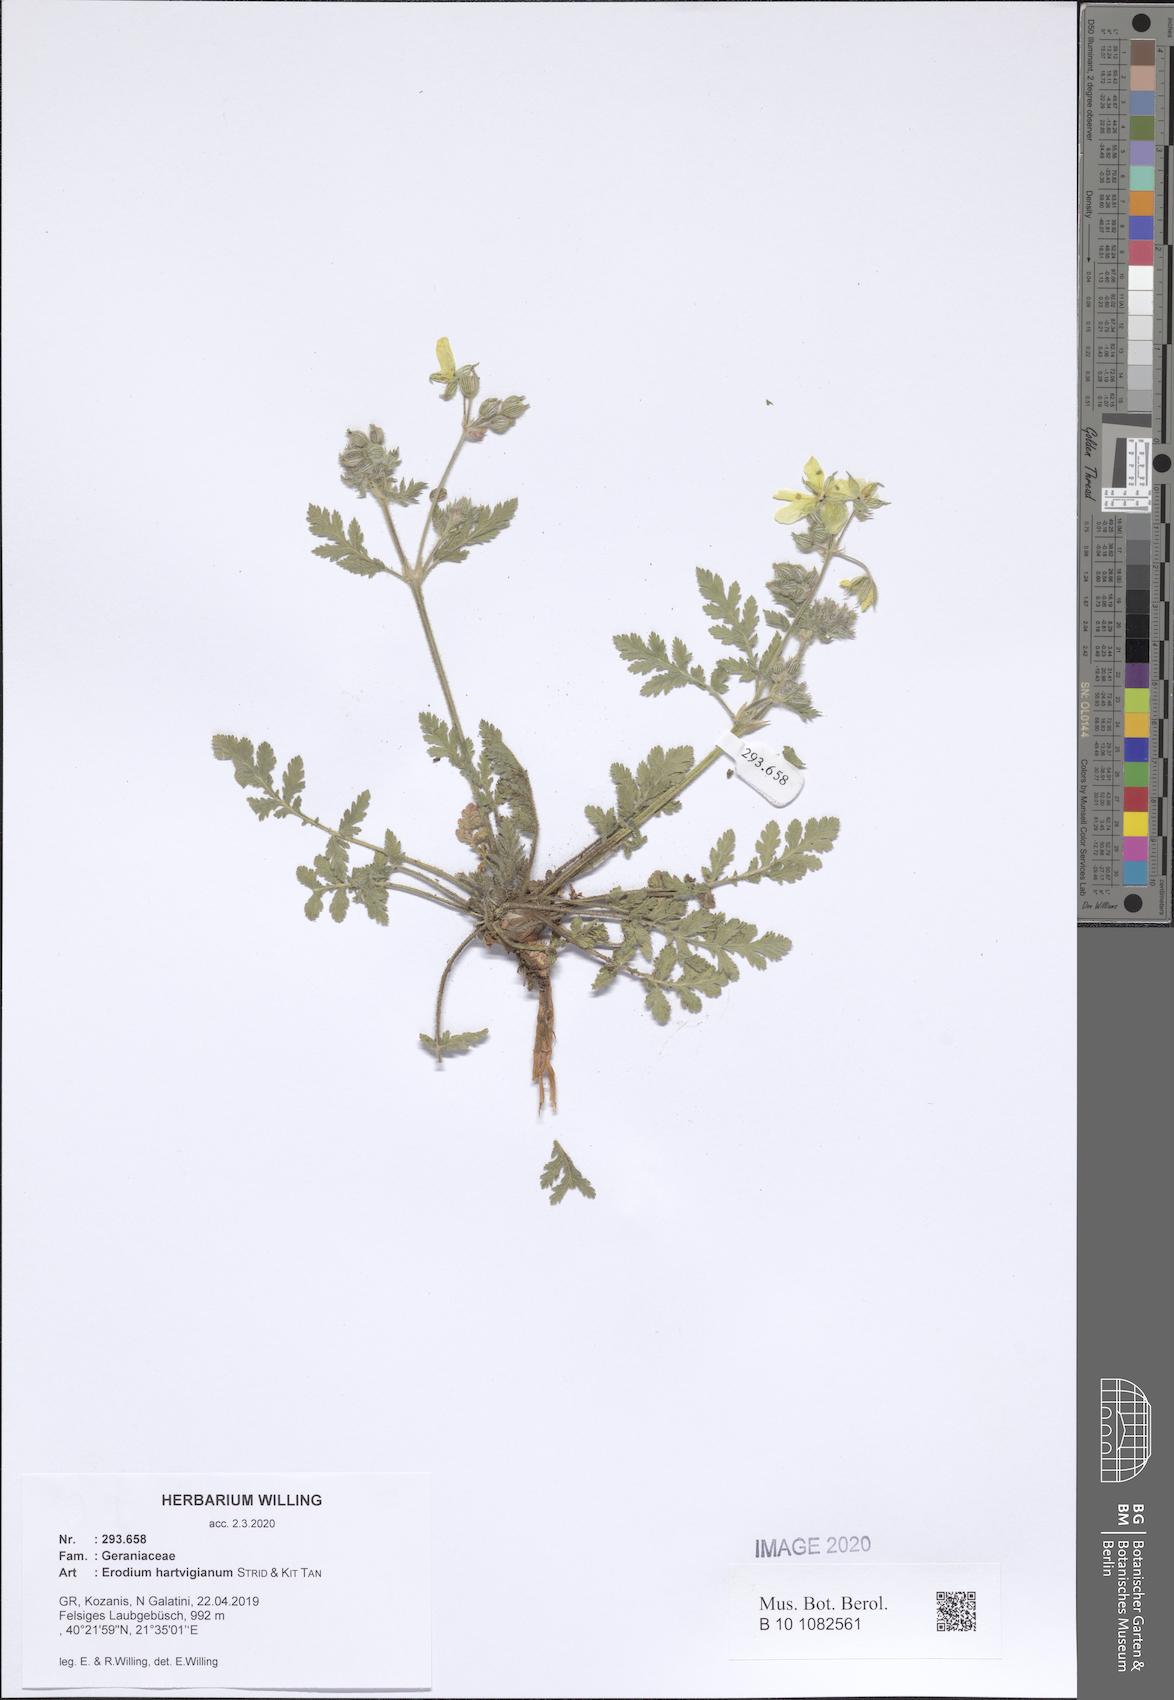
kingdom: Plantae
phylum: Tracheophyta
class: Magnoliopsida
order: Geraniales
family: Geraniaceae
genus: Erodium
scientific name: Erodium hartvigianum
